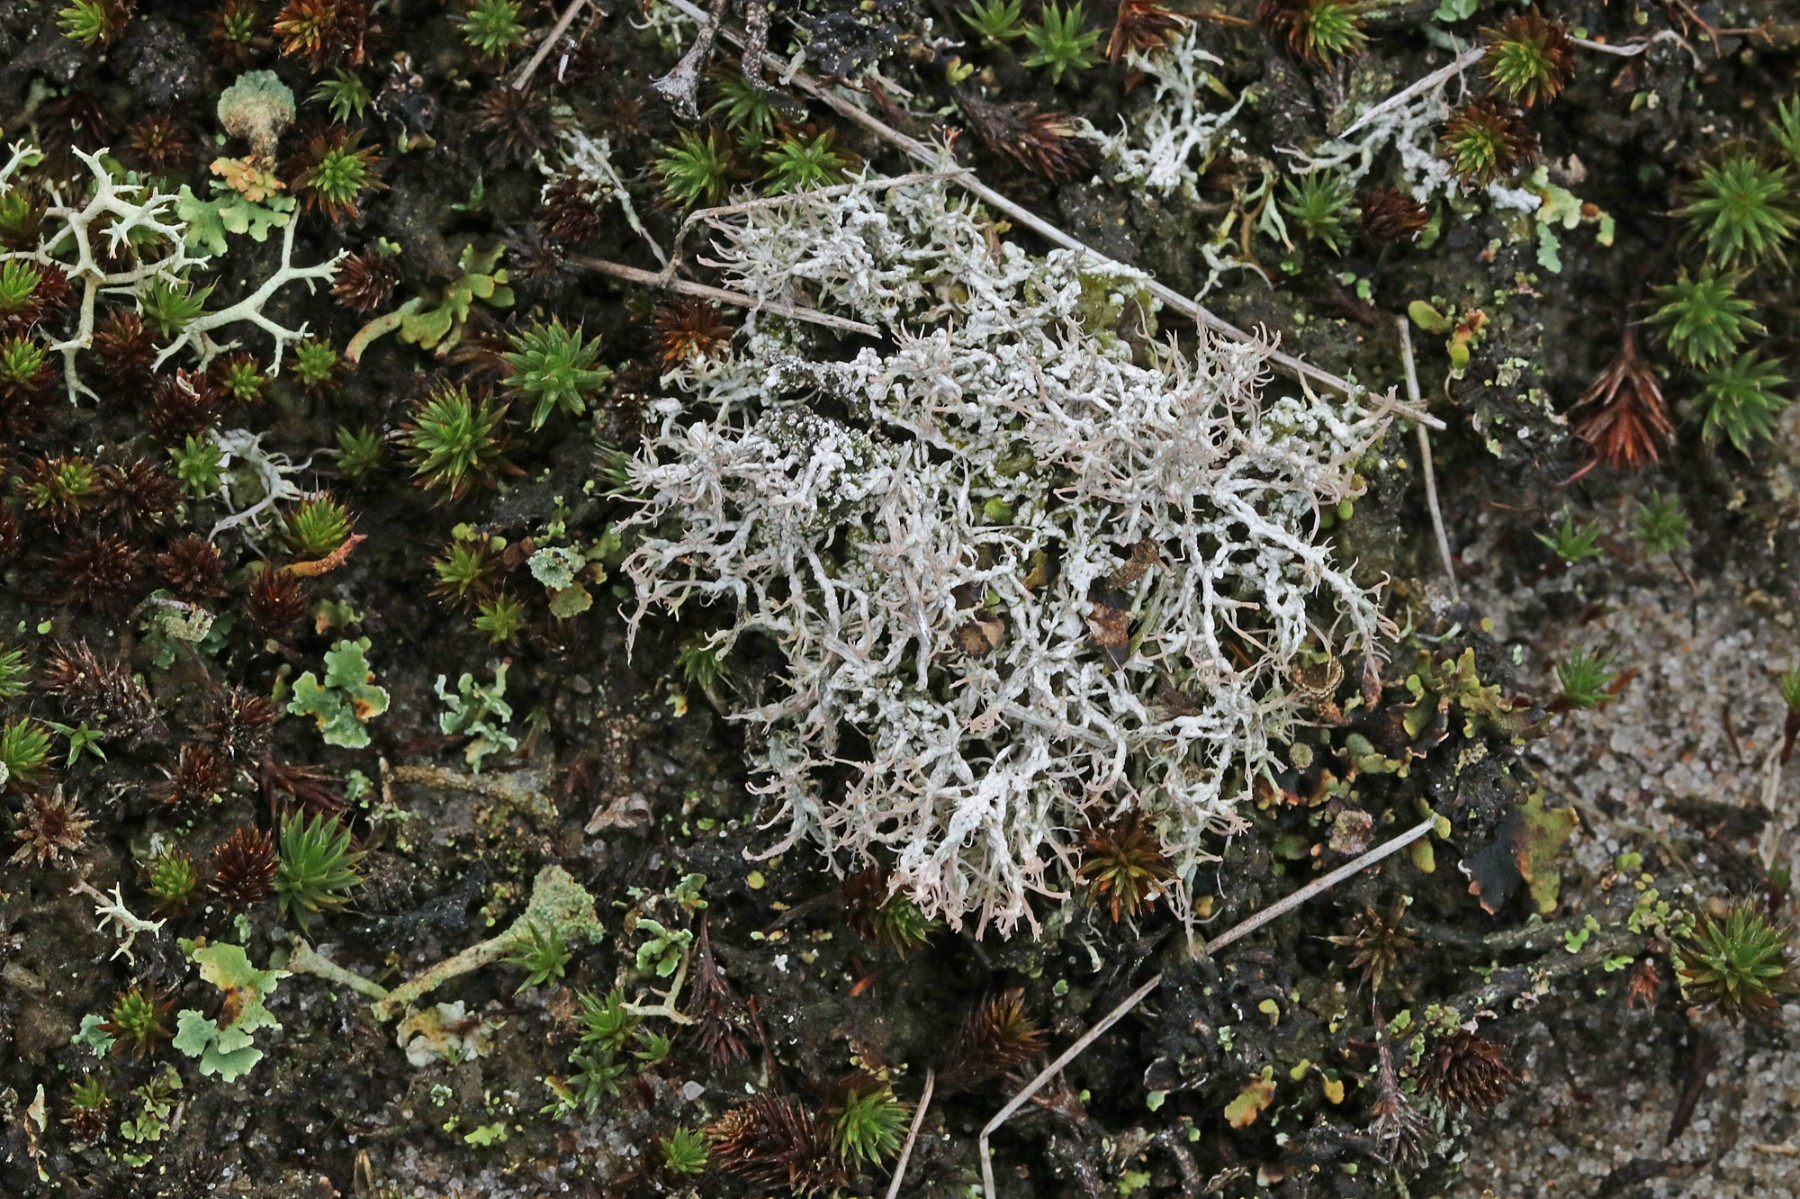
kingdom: Fungi
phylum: Ascomycota
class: Lecanoromycetes
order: Pertusariales
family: Ochrolechiaceae
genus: Ochrolechia
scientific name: Ochrolechia frigida
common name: fjeld-blegskivelav
